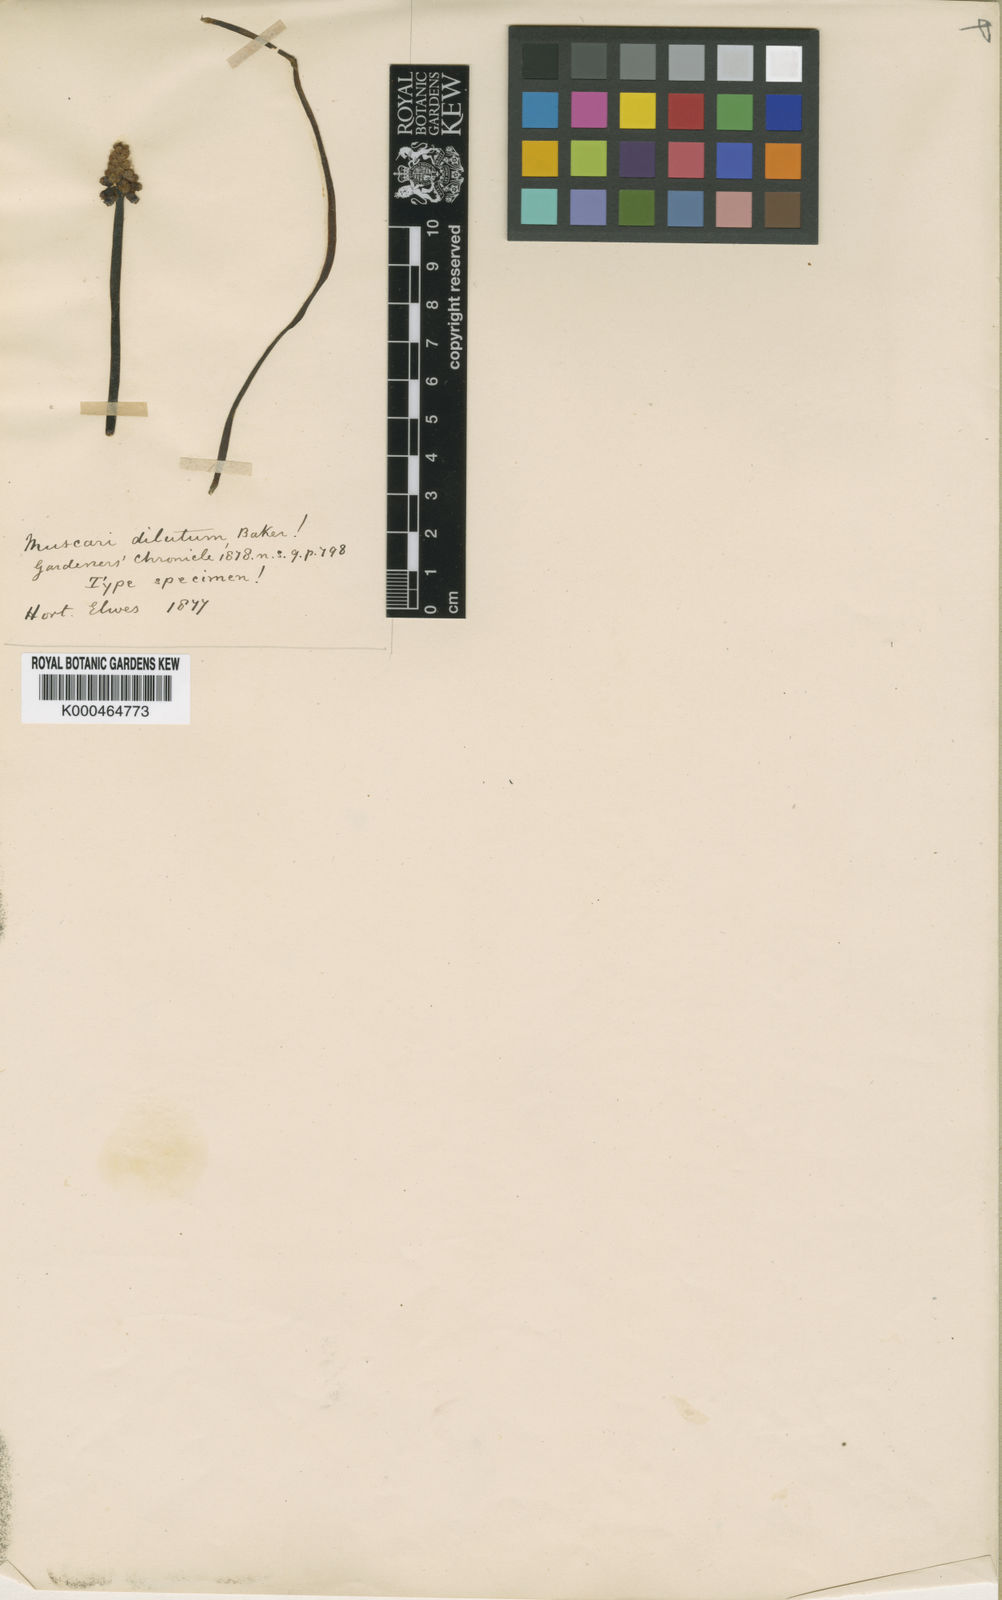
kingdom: Plantae
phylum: Tracheophyta
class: Liliopsida
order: Asparagales
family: Asparagaceae
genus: Muscari
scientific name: Muscari dilutum
